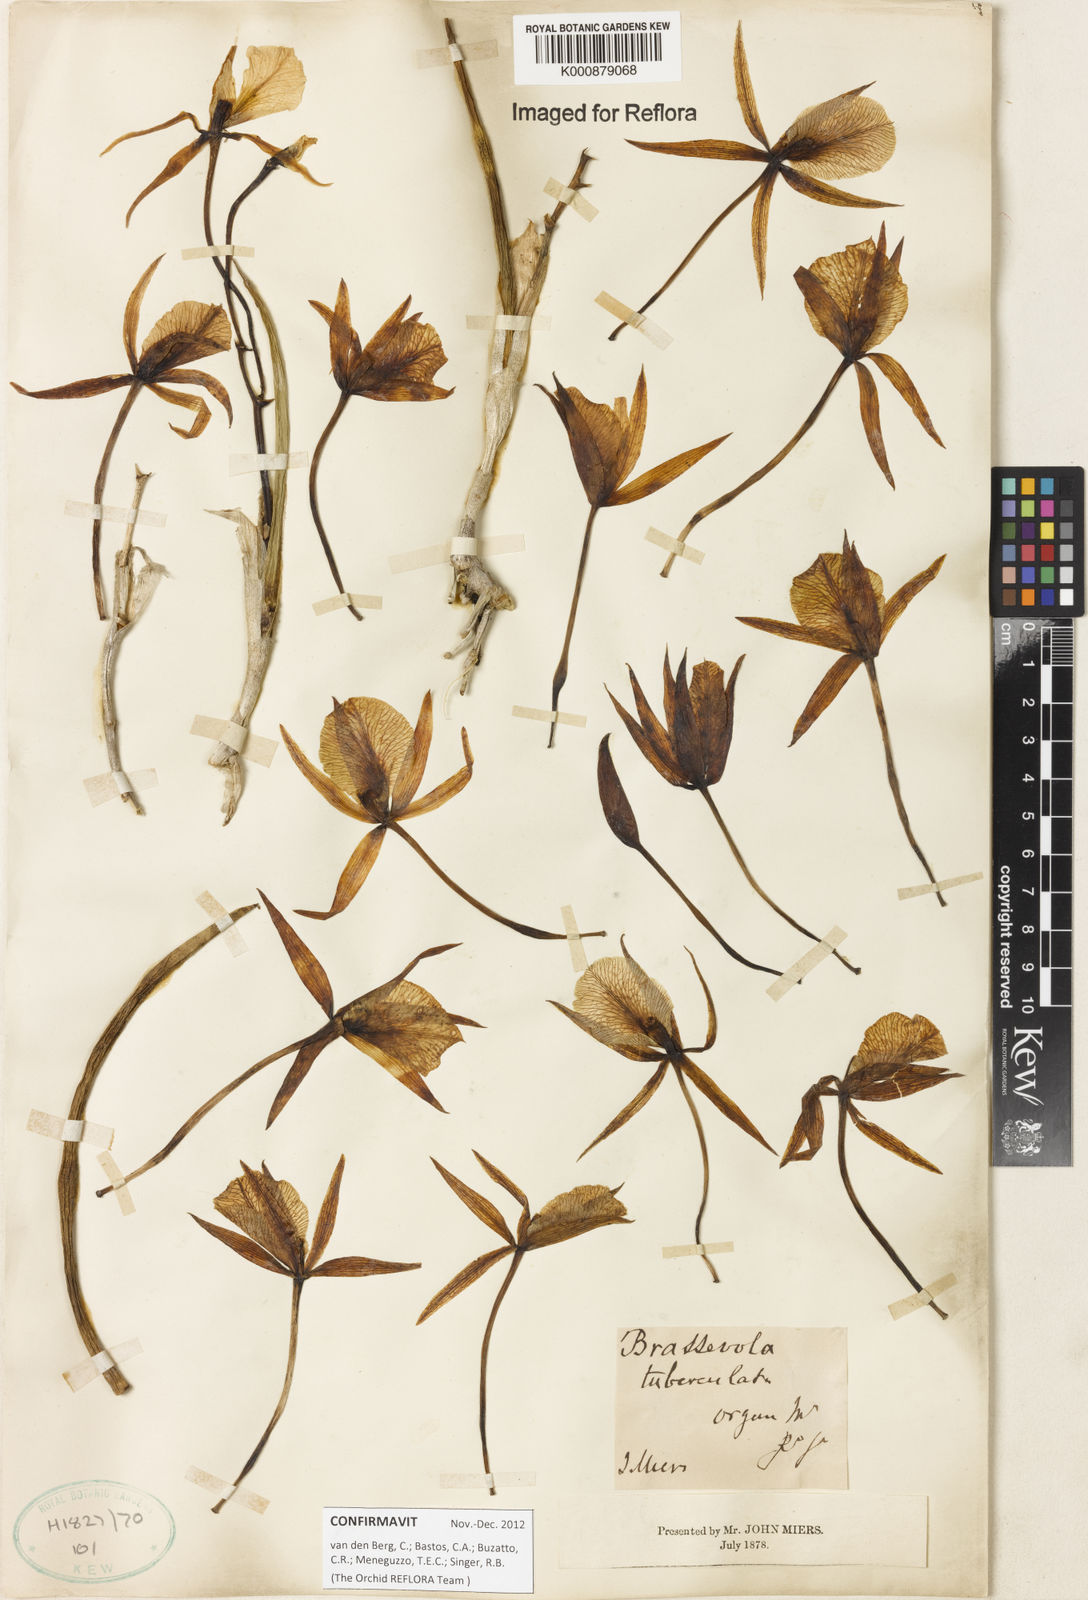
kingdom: Plantae
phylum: Tracheophyta
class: Liliopsida
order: Asparagales
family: Orchidaceae
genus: Brassavola
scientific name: Brassavola tuberculata
